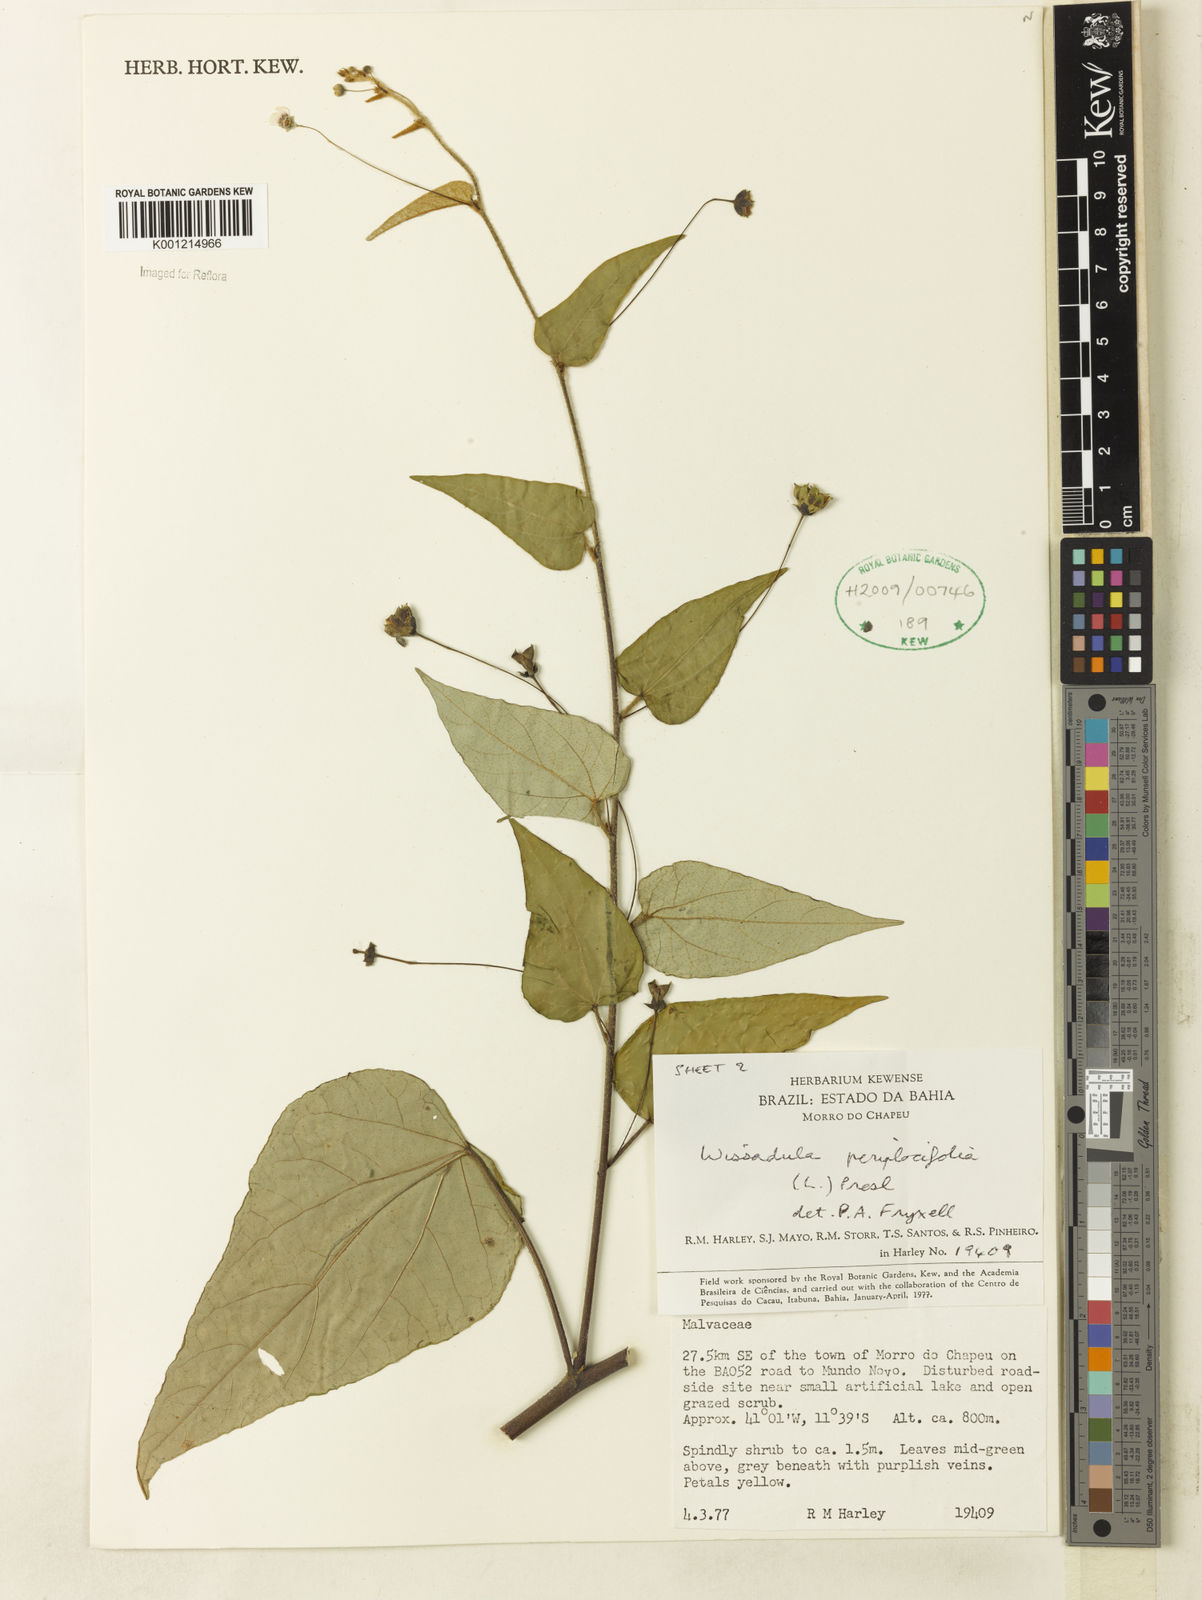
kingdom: Plantae
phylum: Tracheophyta
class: Magnoliopsida
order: Malvales
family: Malvaceae
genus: Wissadula
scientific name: Wissadula periplocifolia
